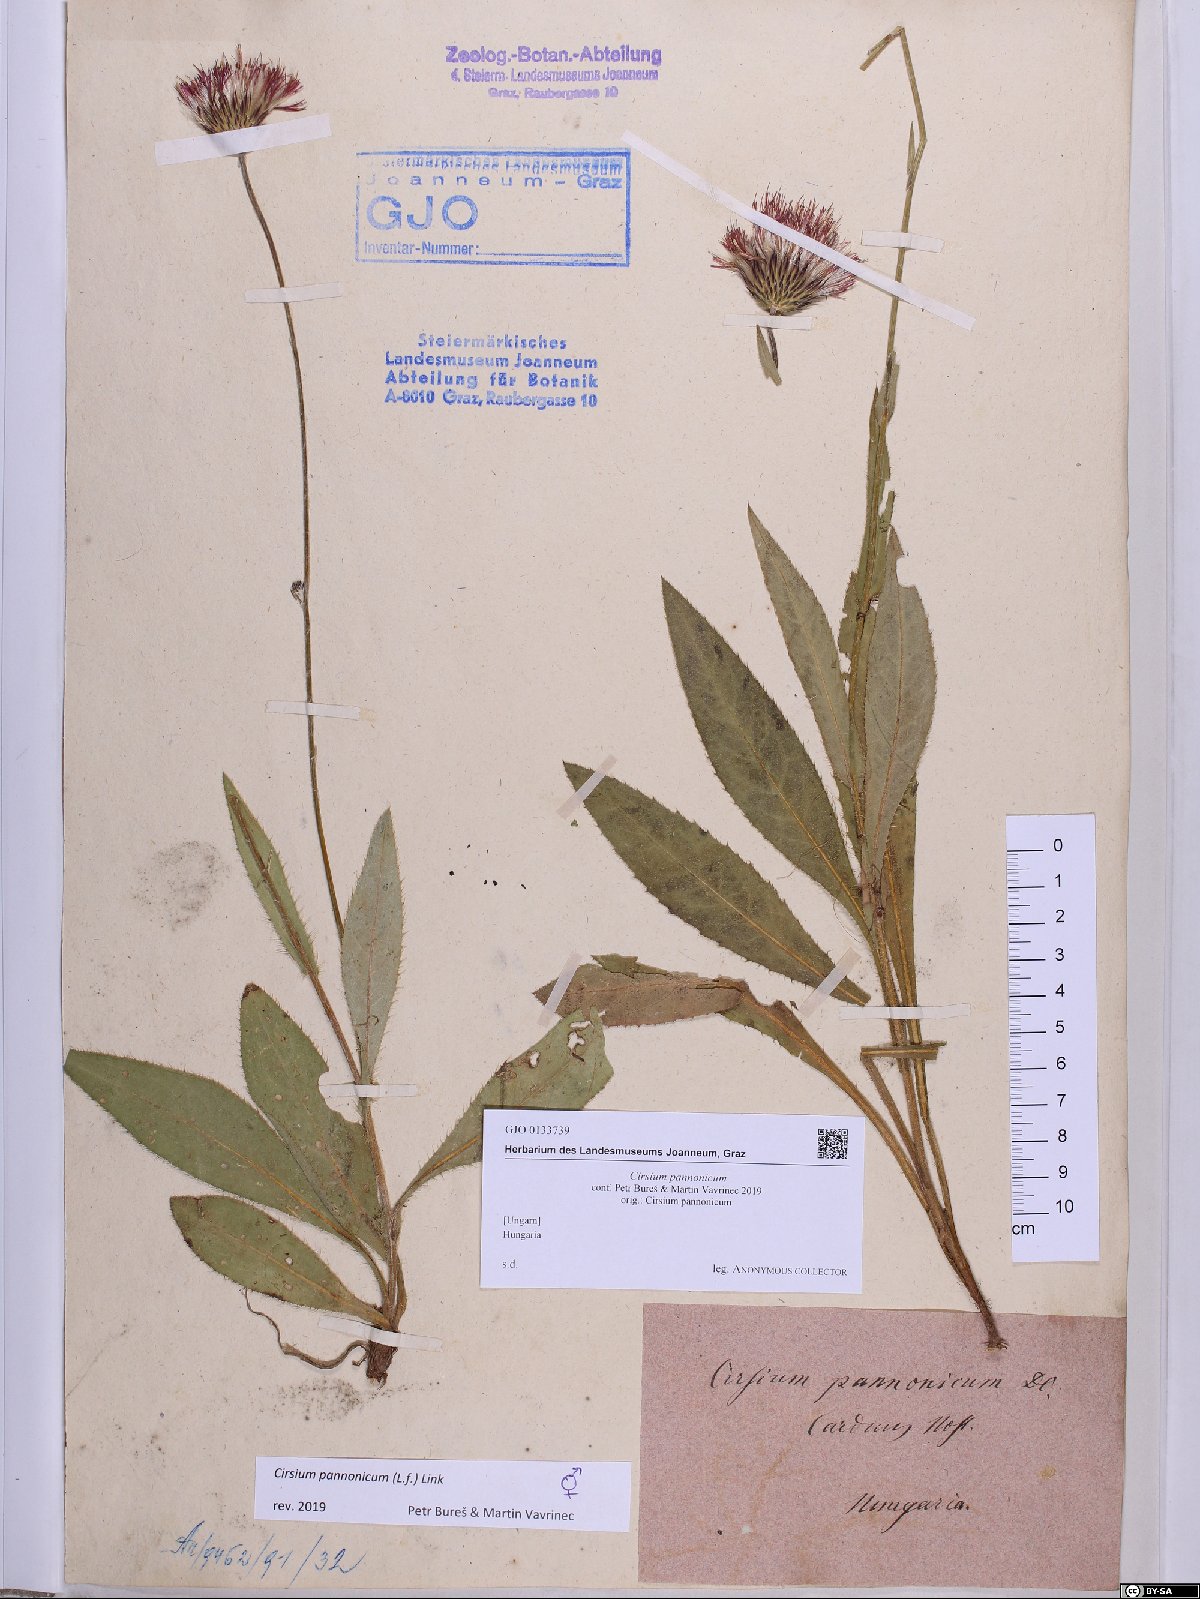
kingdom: Plantae
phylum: Tracheophyta
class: Magnoliopsida
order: Asterales
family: Asteraceae
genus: Cirsium
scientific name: Cirsium pannonicum
